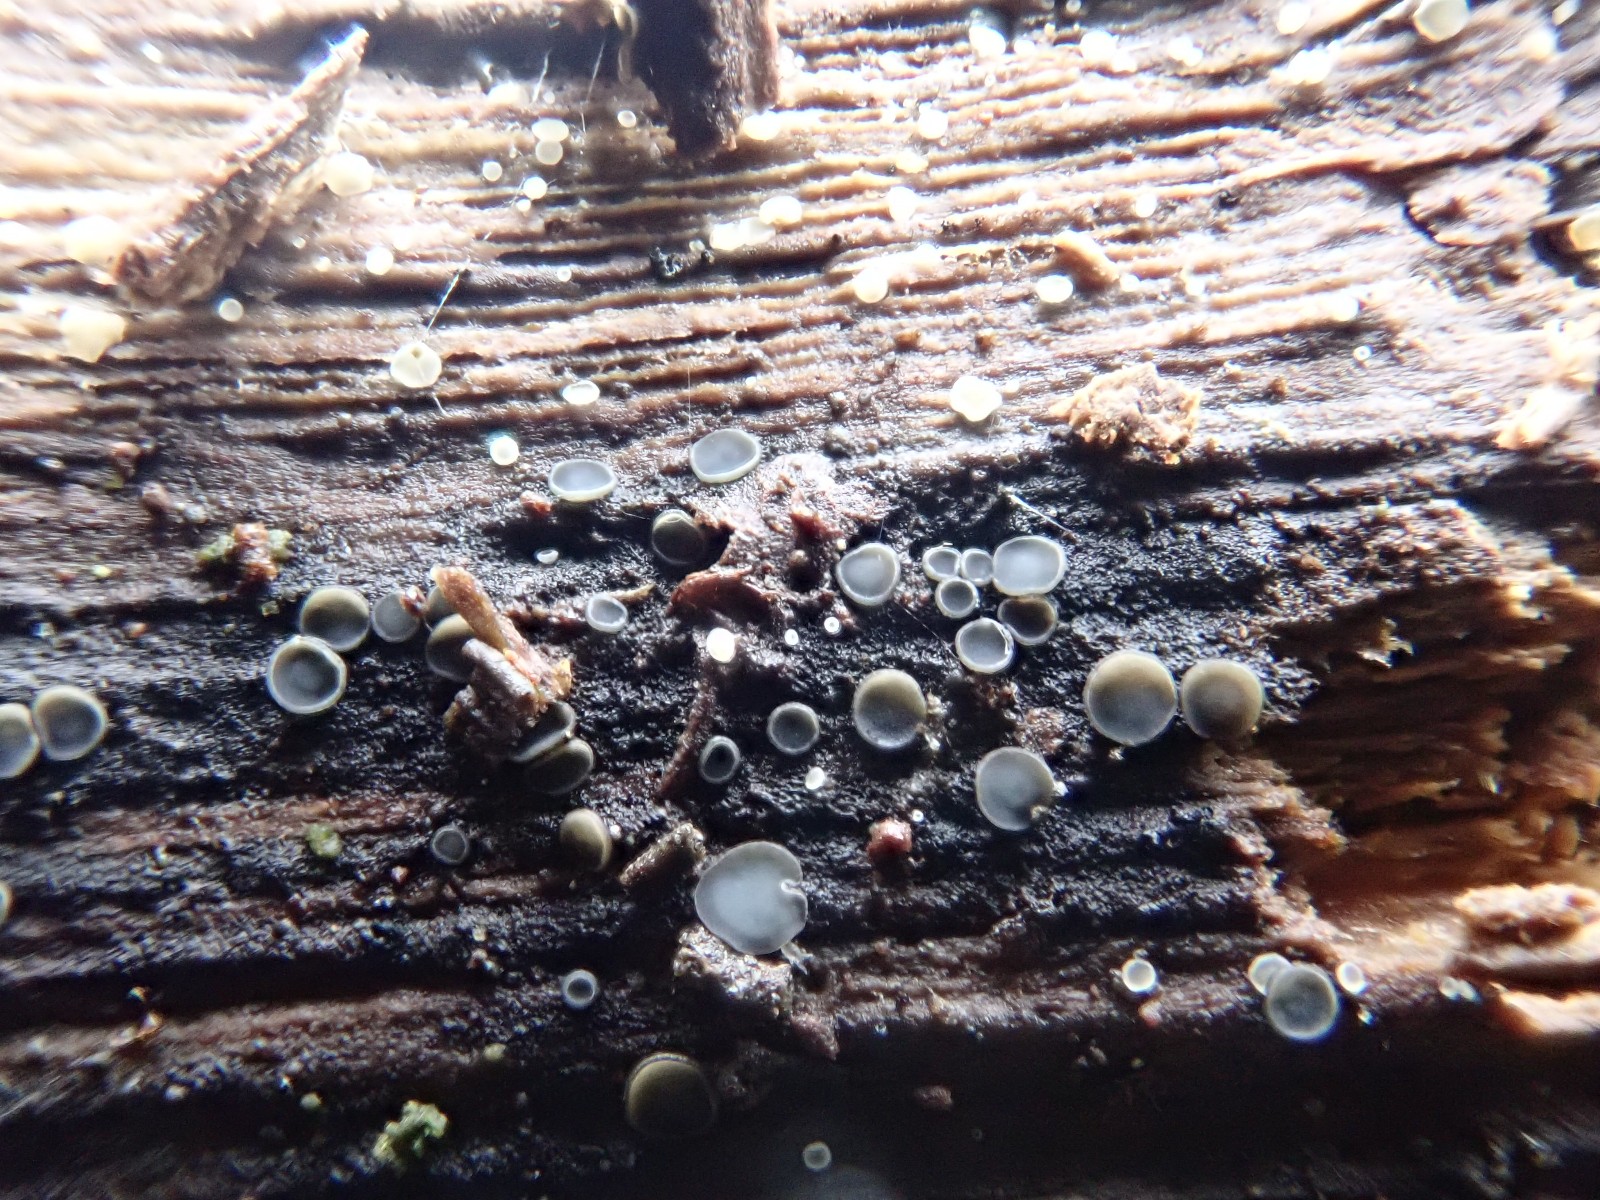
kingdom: Fungi
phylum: Ascomycota
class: Leotiomycetes
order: Helotiales
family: Mollisiaceae
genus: Mollisia
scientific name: Mollisia
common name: gråskive
